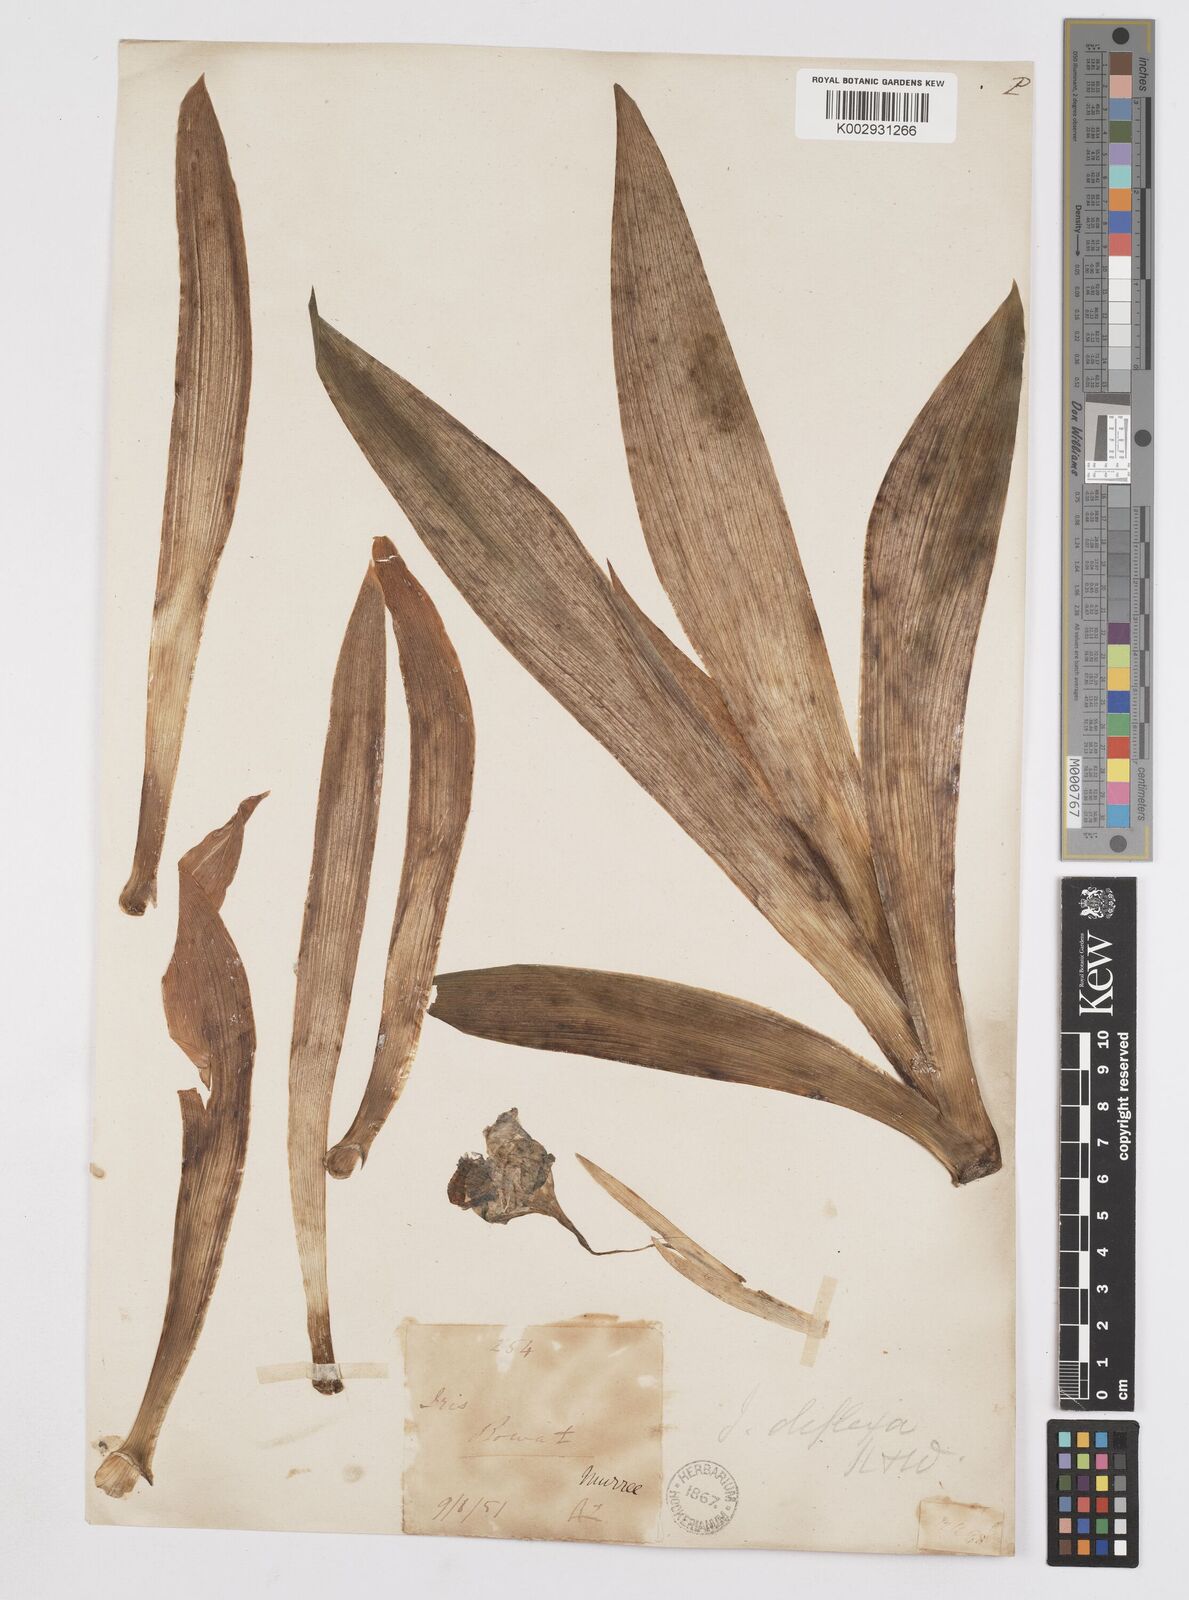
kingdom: Plantae
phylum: Tracheophyta
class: Liliopsida
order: Asparagales
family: Iridaceae
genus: Iris
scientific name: Iris germanica
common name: German iris
